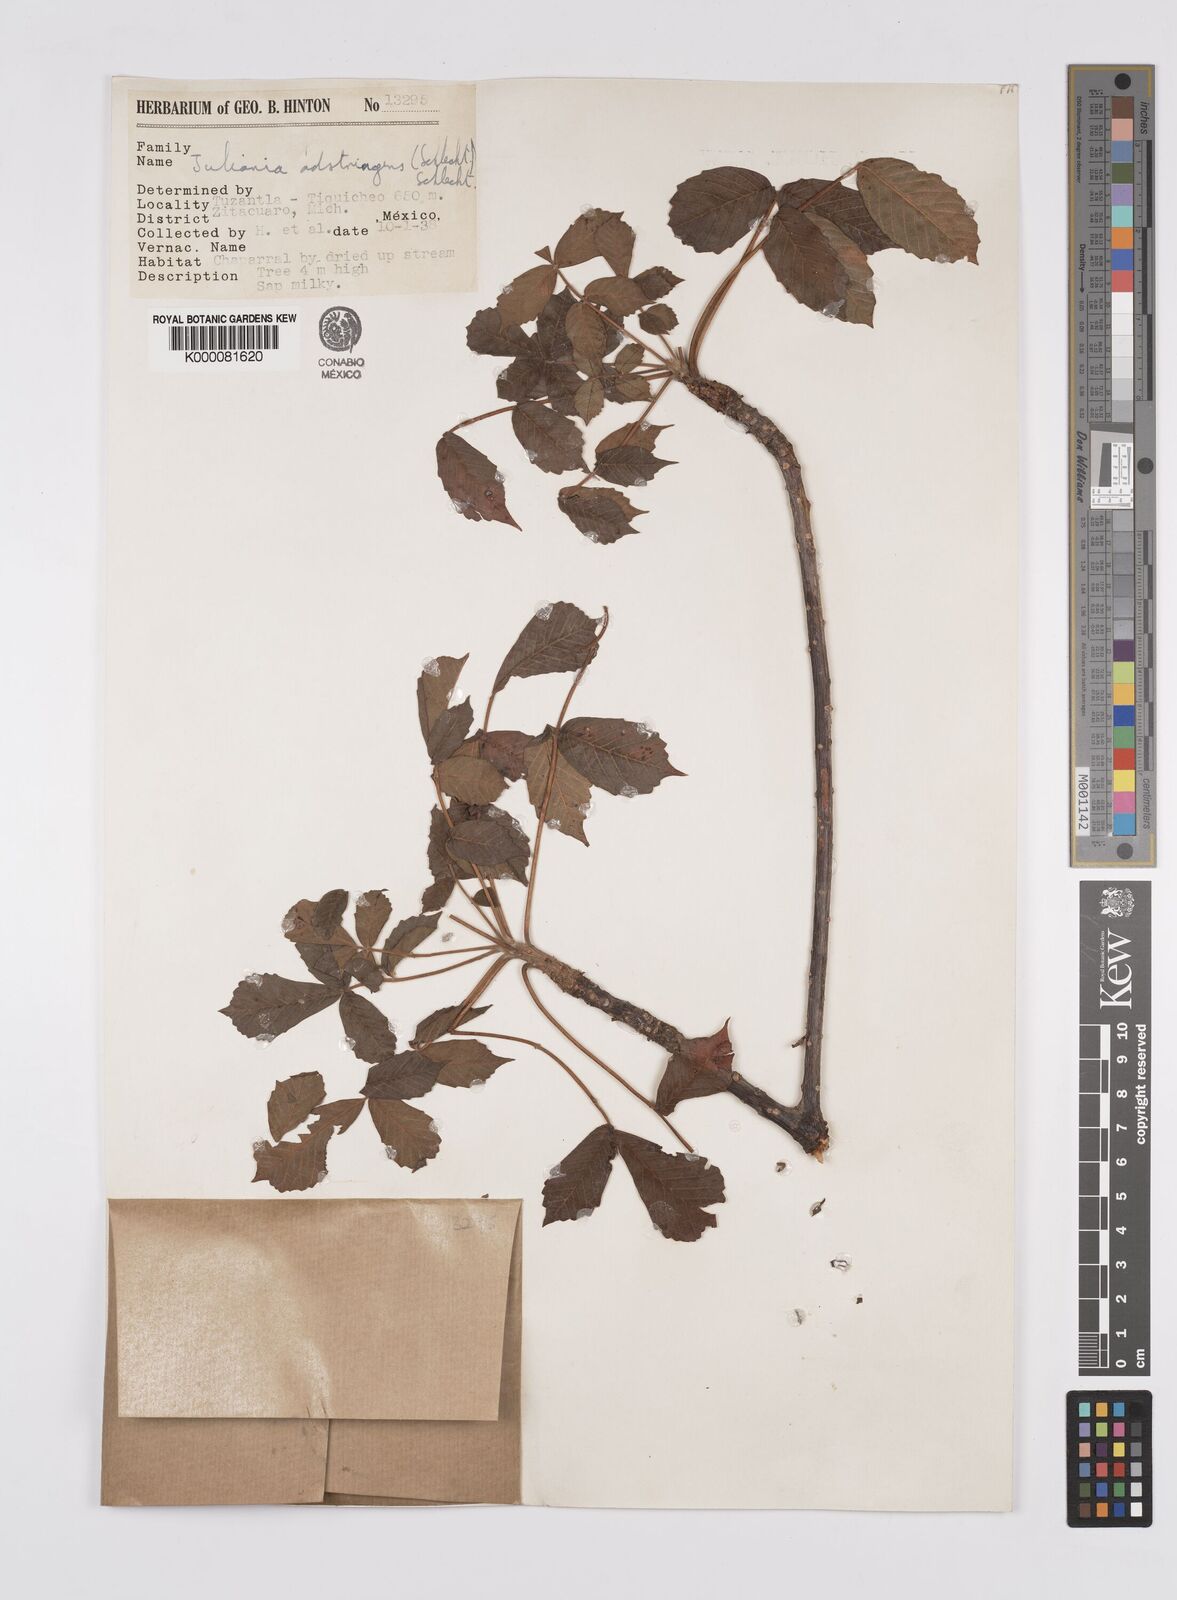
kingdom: Plantae
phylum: Tracheophyta
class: Magnoliopsida
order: Sapindales
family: Anacardiaceae
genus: Amphipterygium
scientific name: Amphipterygium adstringens
